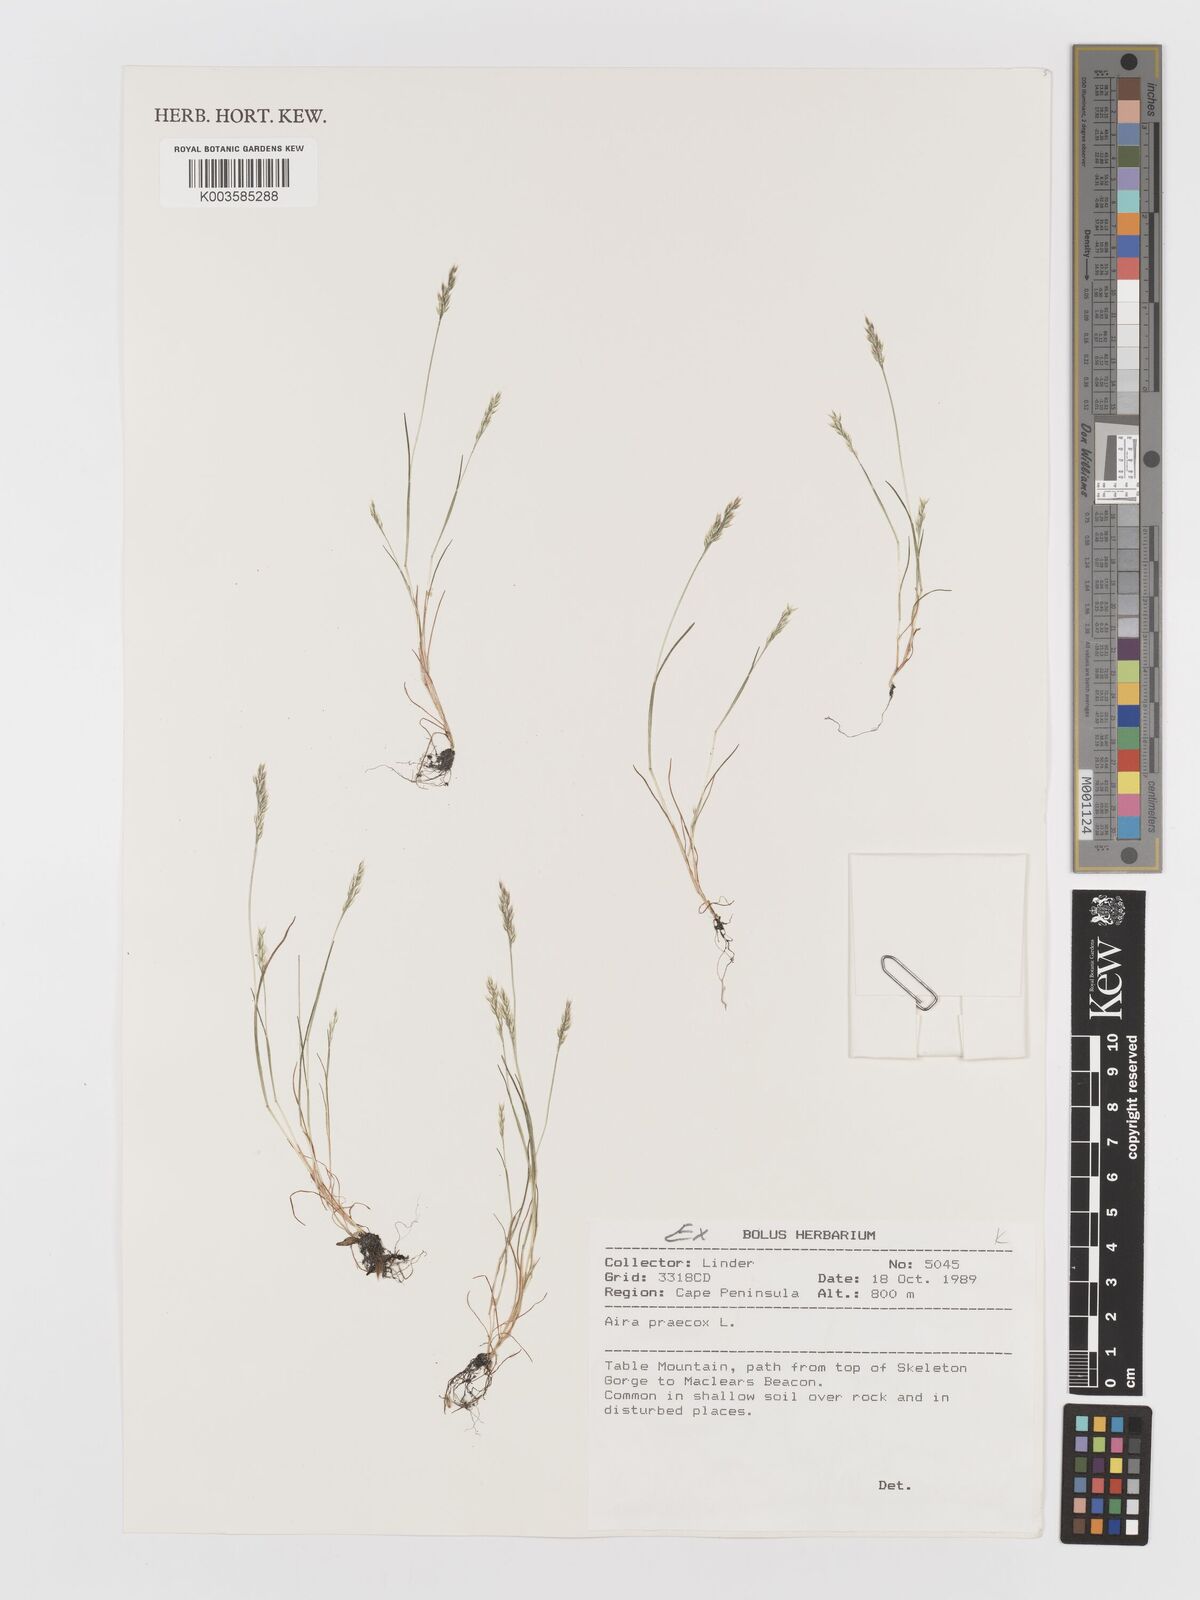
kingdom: Plantae
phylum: Tracheophyta
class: Liliopsida
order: Poales
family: Poaceae
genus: Aira
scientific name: Aira praecox
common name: Early hair-grass
